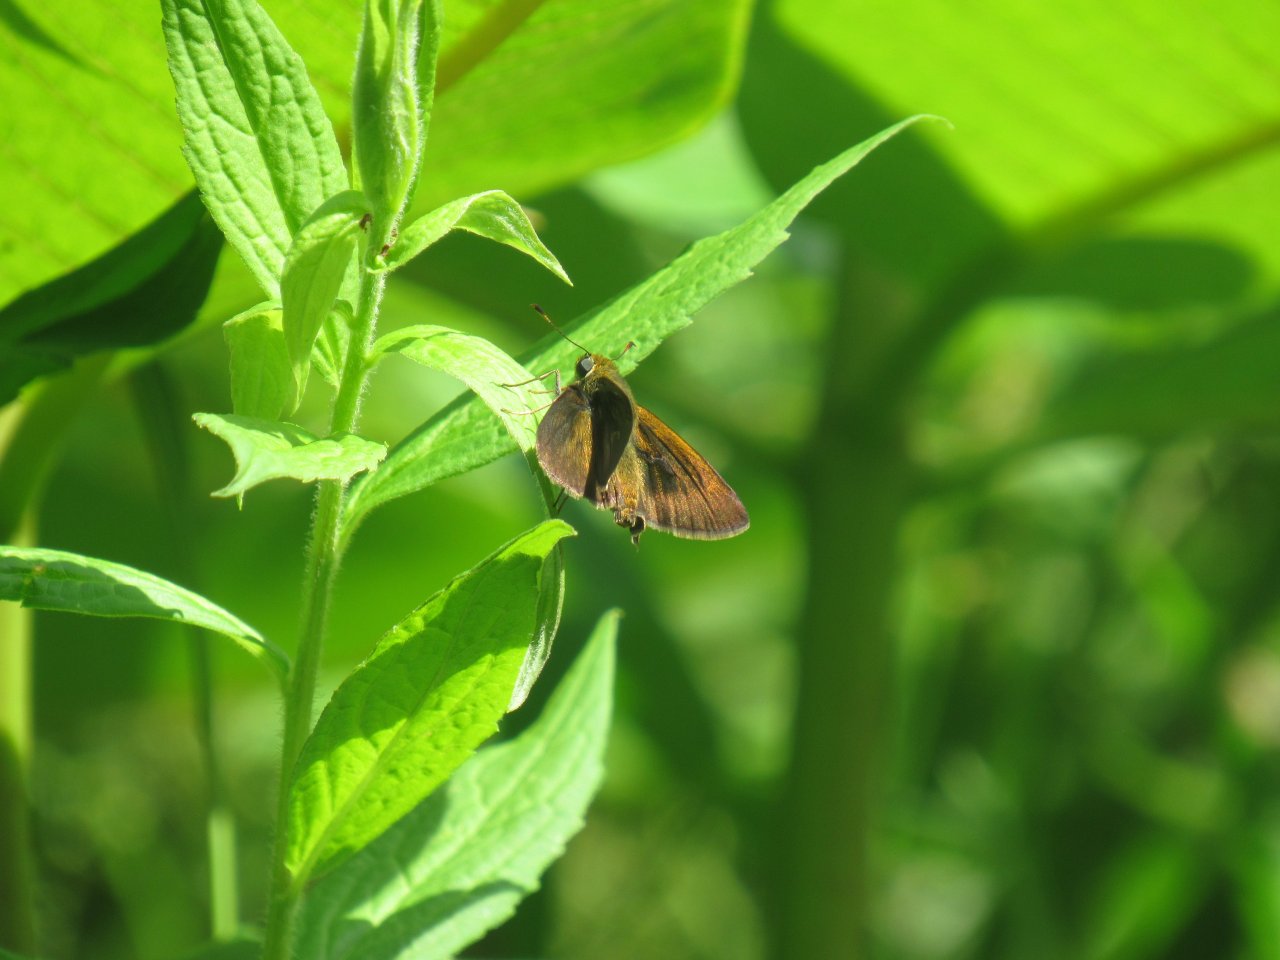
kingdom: Animalia
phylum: Arthropoda
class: Insecta
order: Lepidoptera
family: Hesperiidae
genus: Euphyes
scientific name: Euphyes vestris
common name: Dun Skipper
